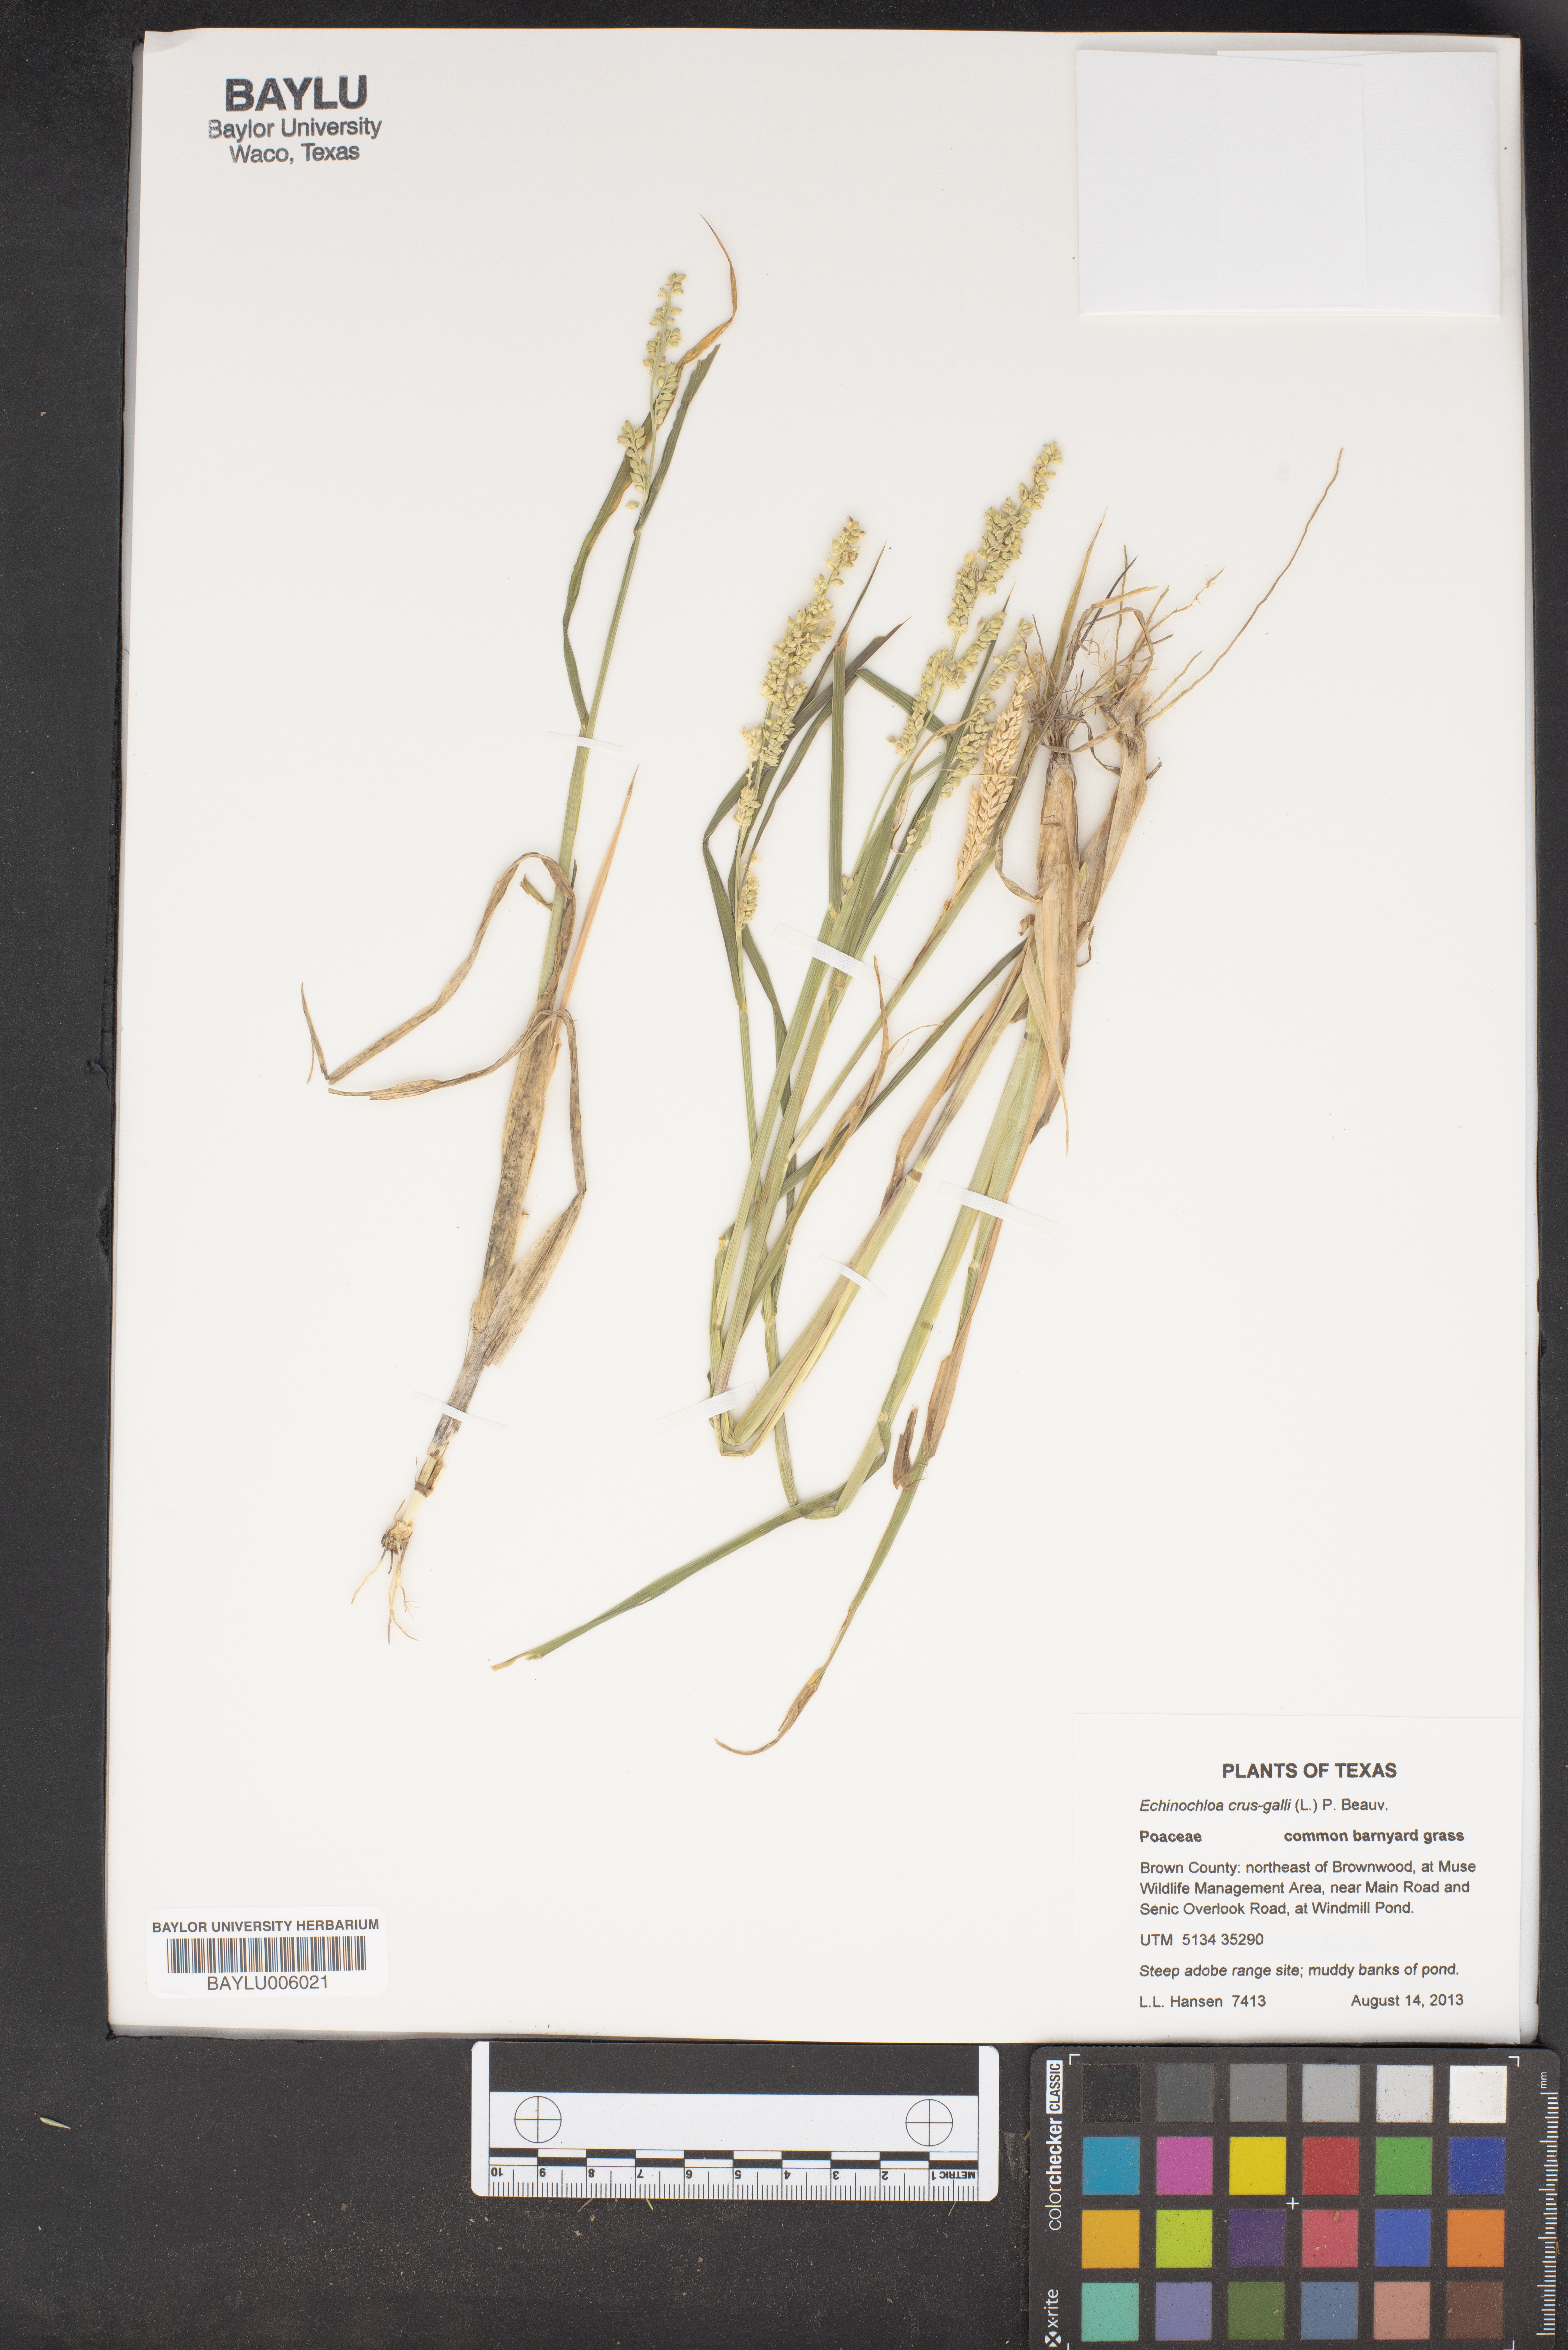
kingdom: Plantae
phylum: Tracheophyta
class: Liliopsida
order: Poales
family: Poaceae
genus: Echinochloa
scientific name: Echinochloa crus-galli
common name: Cockspur
